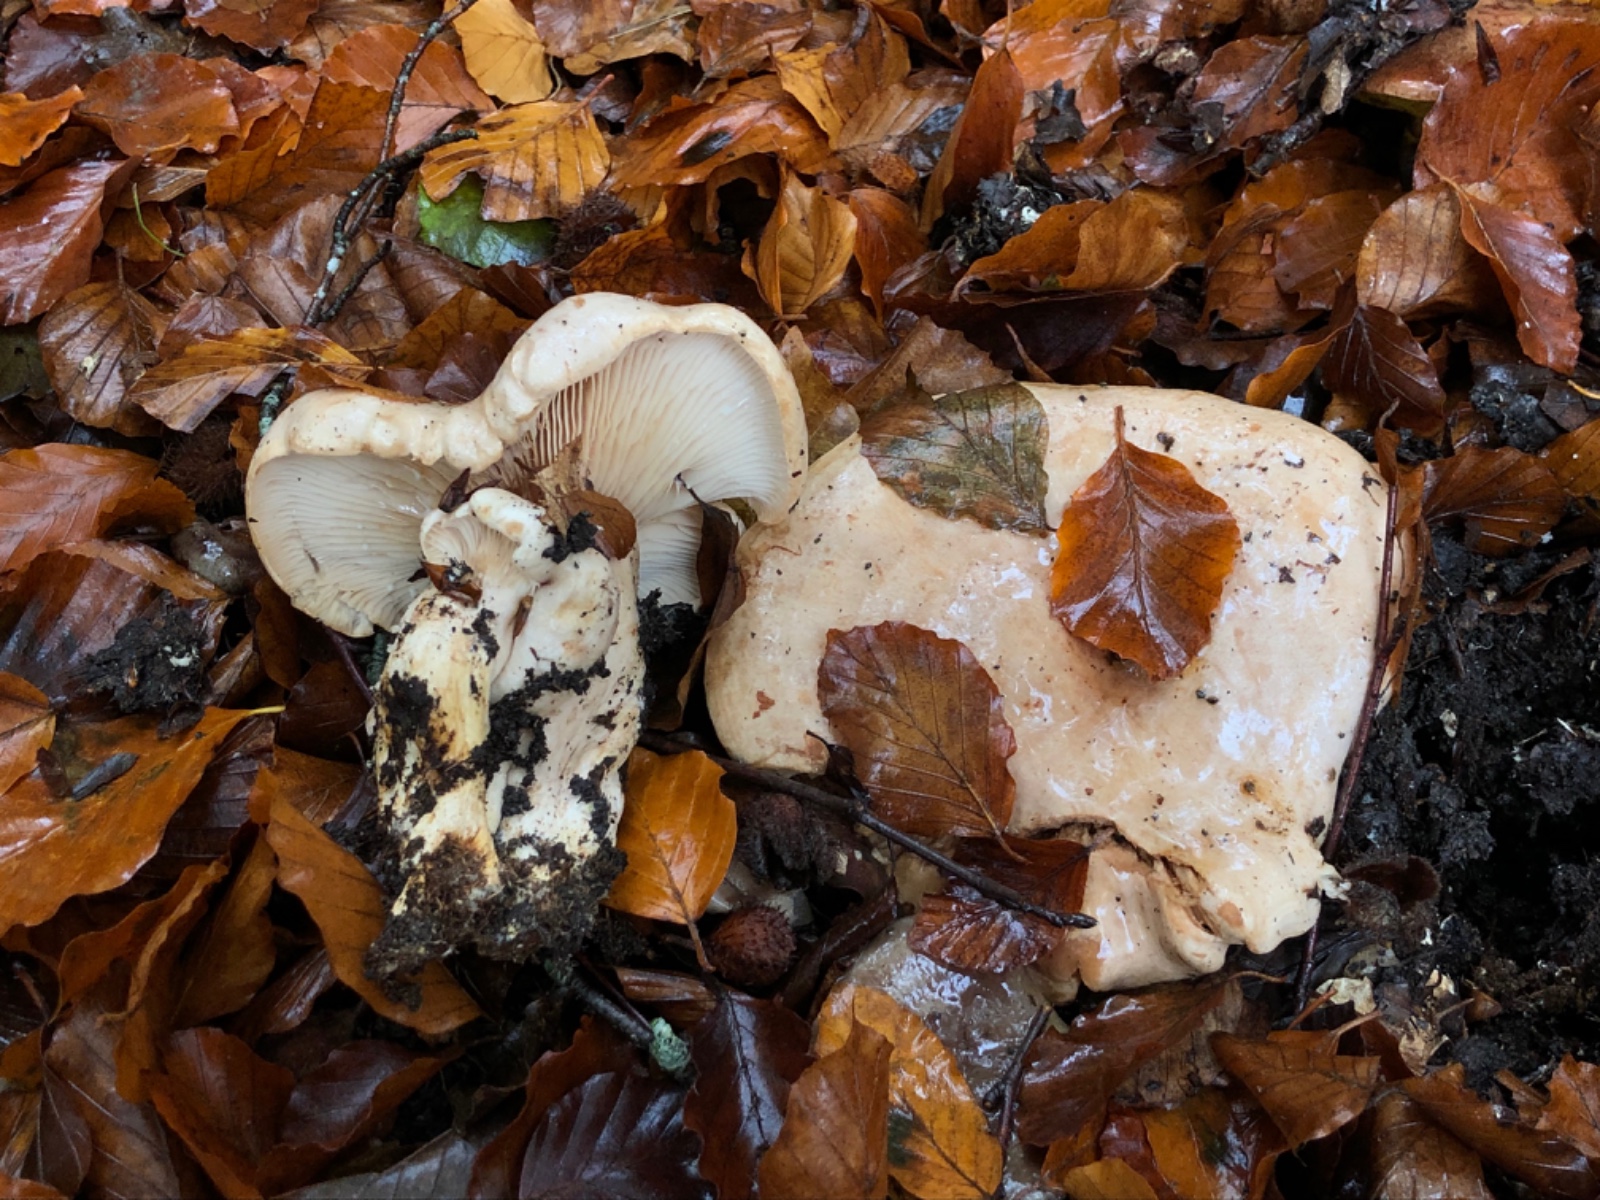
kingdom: Fungi
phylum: Basidiomycota
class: Agaricomycetes
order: Russulales
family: Russulaceae
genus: Lactarius
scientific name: Lactarius pallidus
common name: bleg mælkehat
